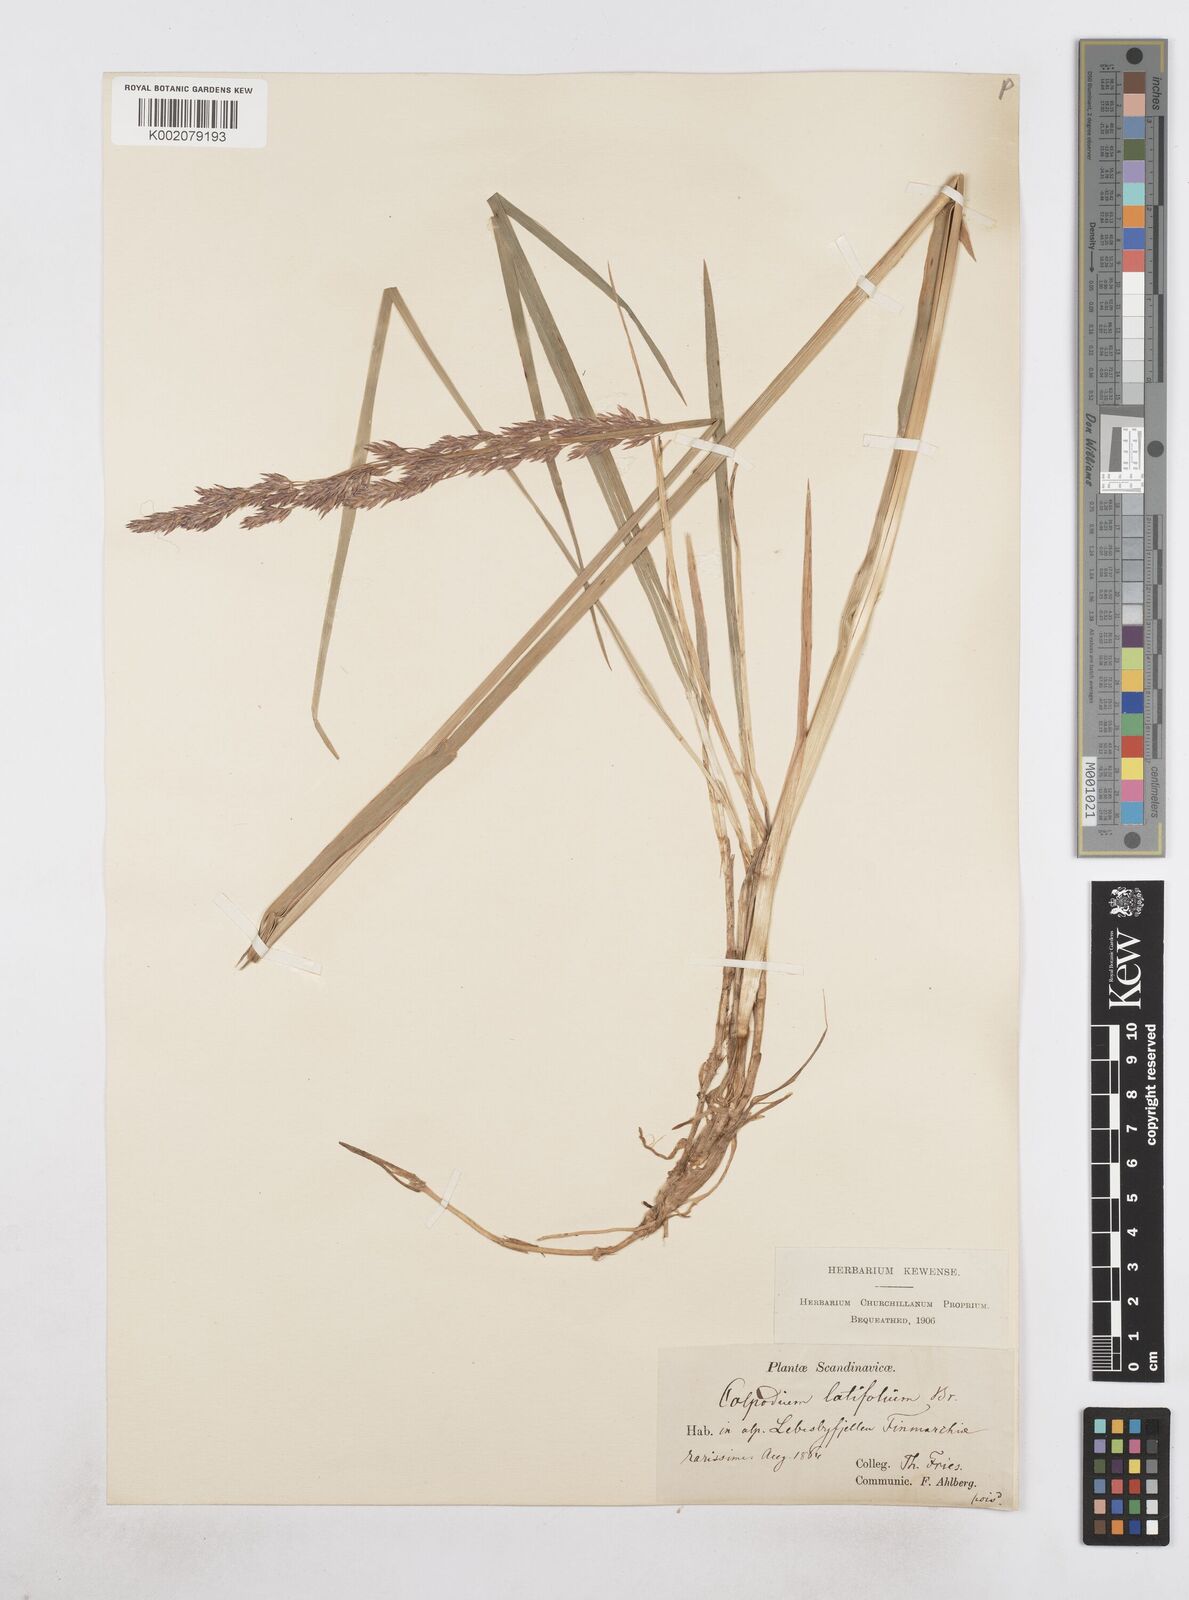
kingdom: Plantae
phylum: Tracheophyta
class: Liliopsida
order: Poales
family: Poaceae
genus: Arctagrostis
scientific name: Arctagrostis latifolia
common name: Arctic grass
